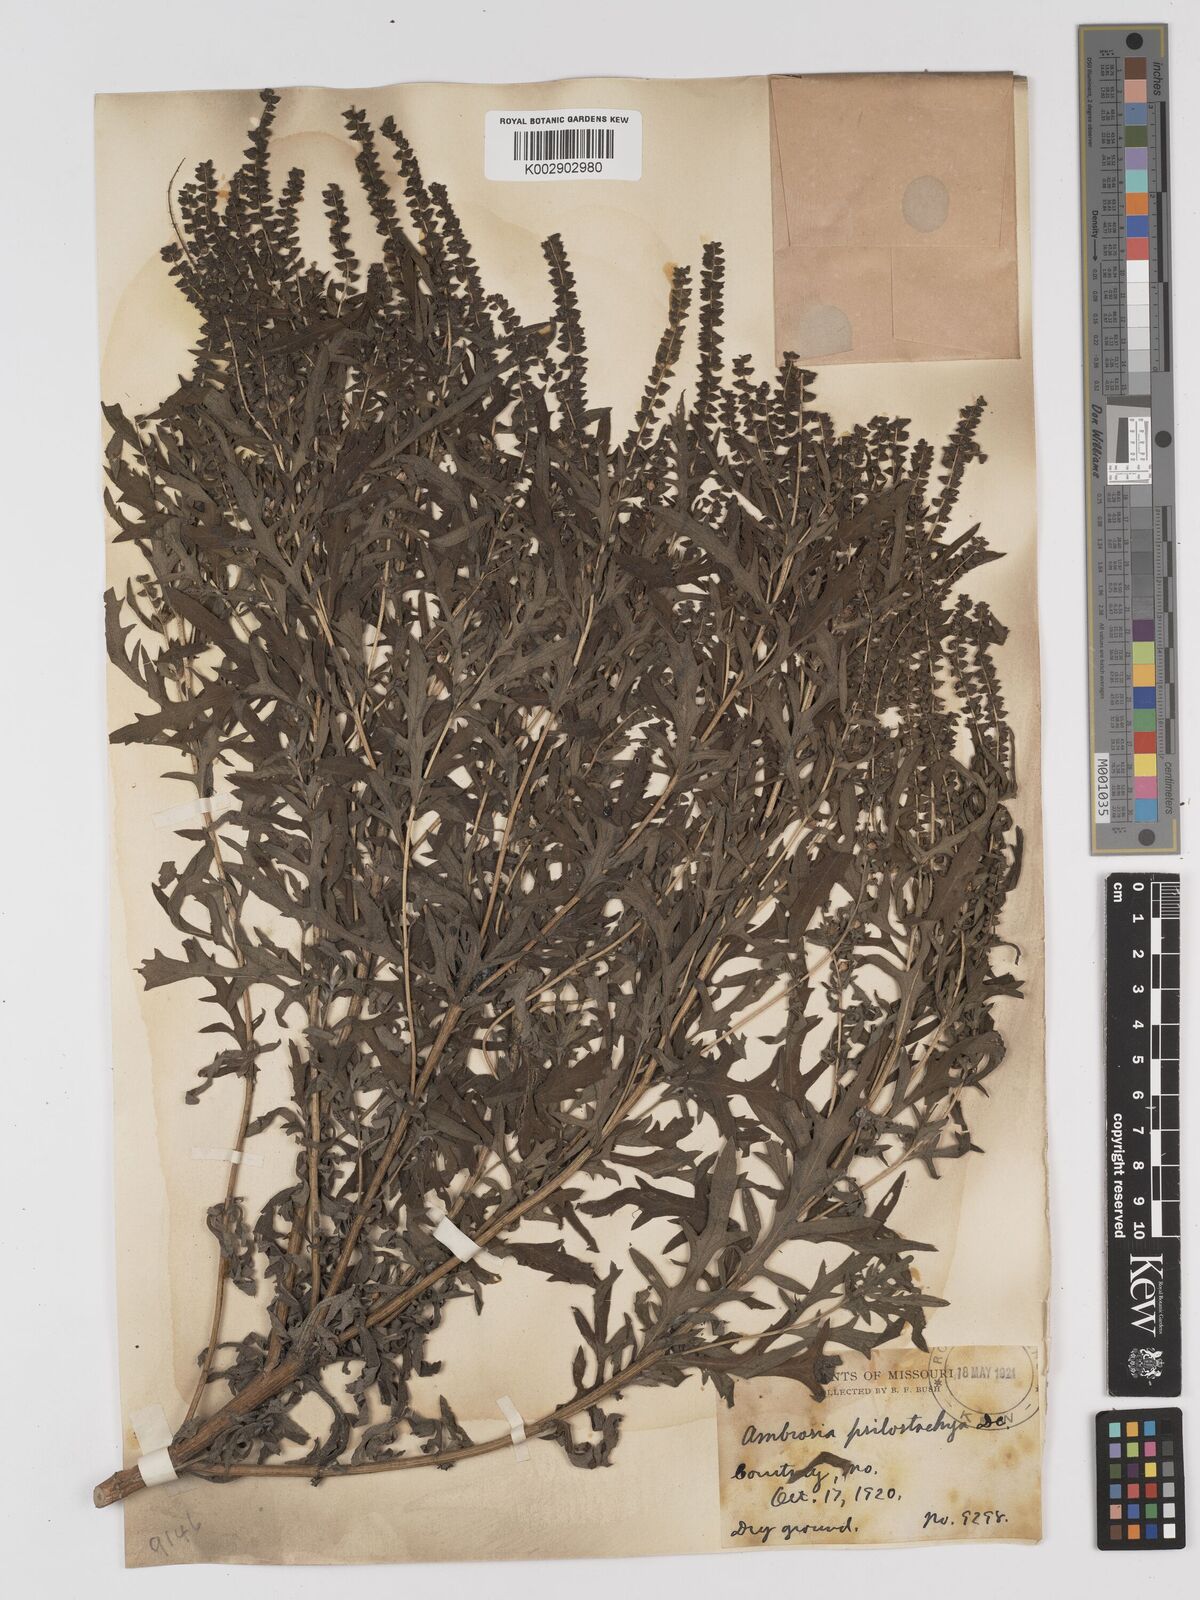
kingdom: Plantae
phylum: Tracheophyta
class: Magnoliopsida
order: Asterales
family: Asteraceae
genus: Ambrosia
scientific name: Ambrosia psilostachya
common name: Perennial ragweed
